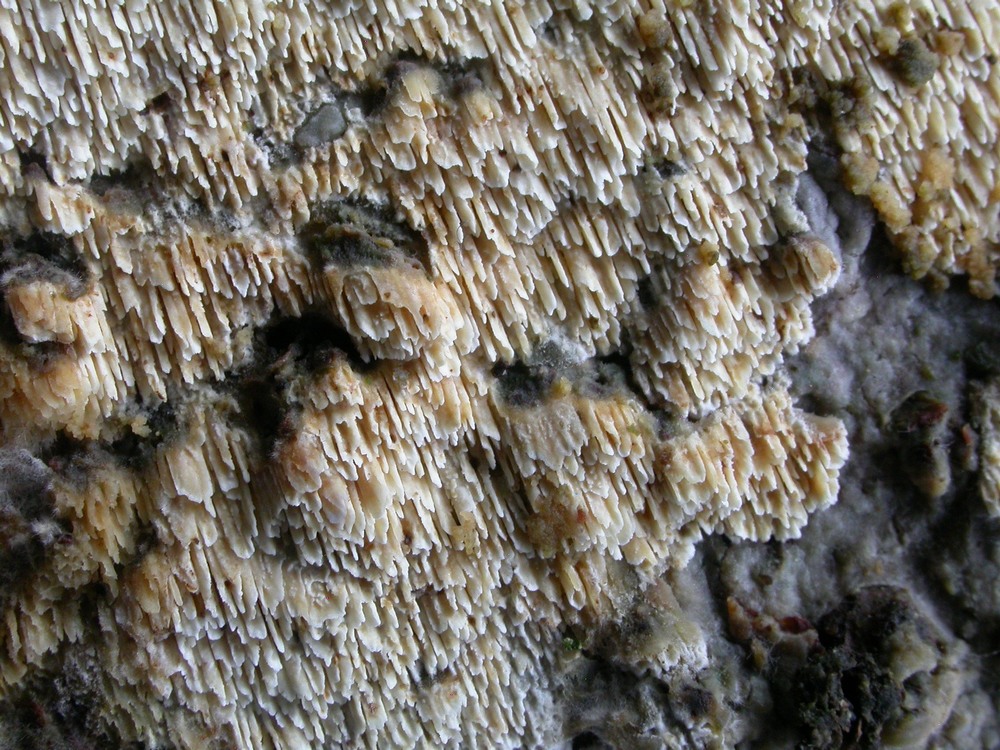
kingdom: Fungi
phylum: Basidiomycota
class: Agaricomycetes
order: Hymenochaetales
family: Schizoporaceae
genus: Xylodon
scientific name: Xylodon subtropicus
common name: labyrint-tandsvamp
